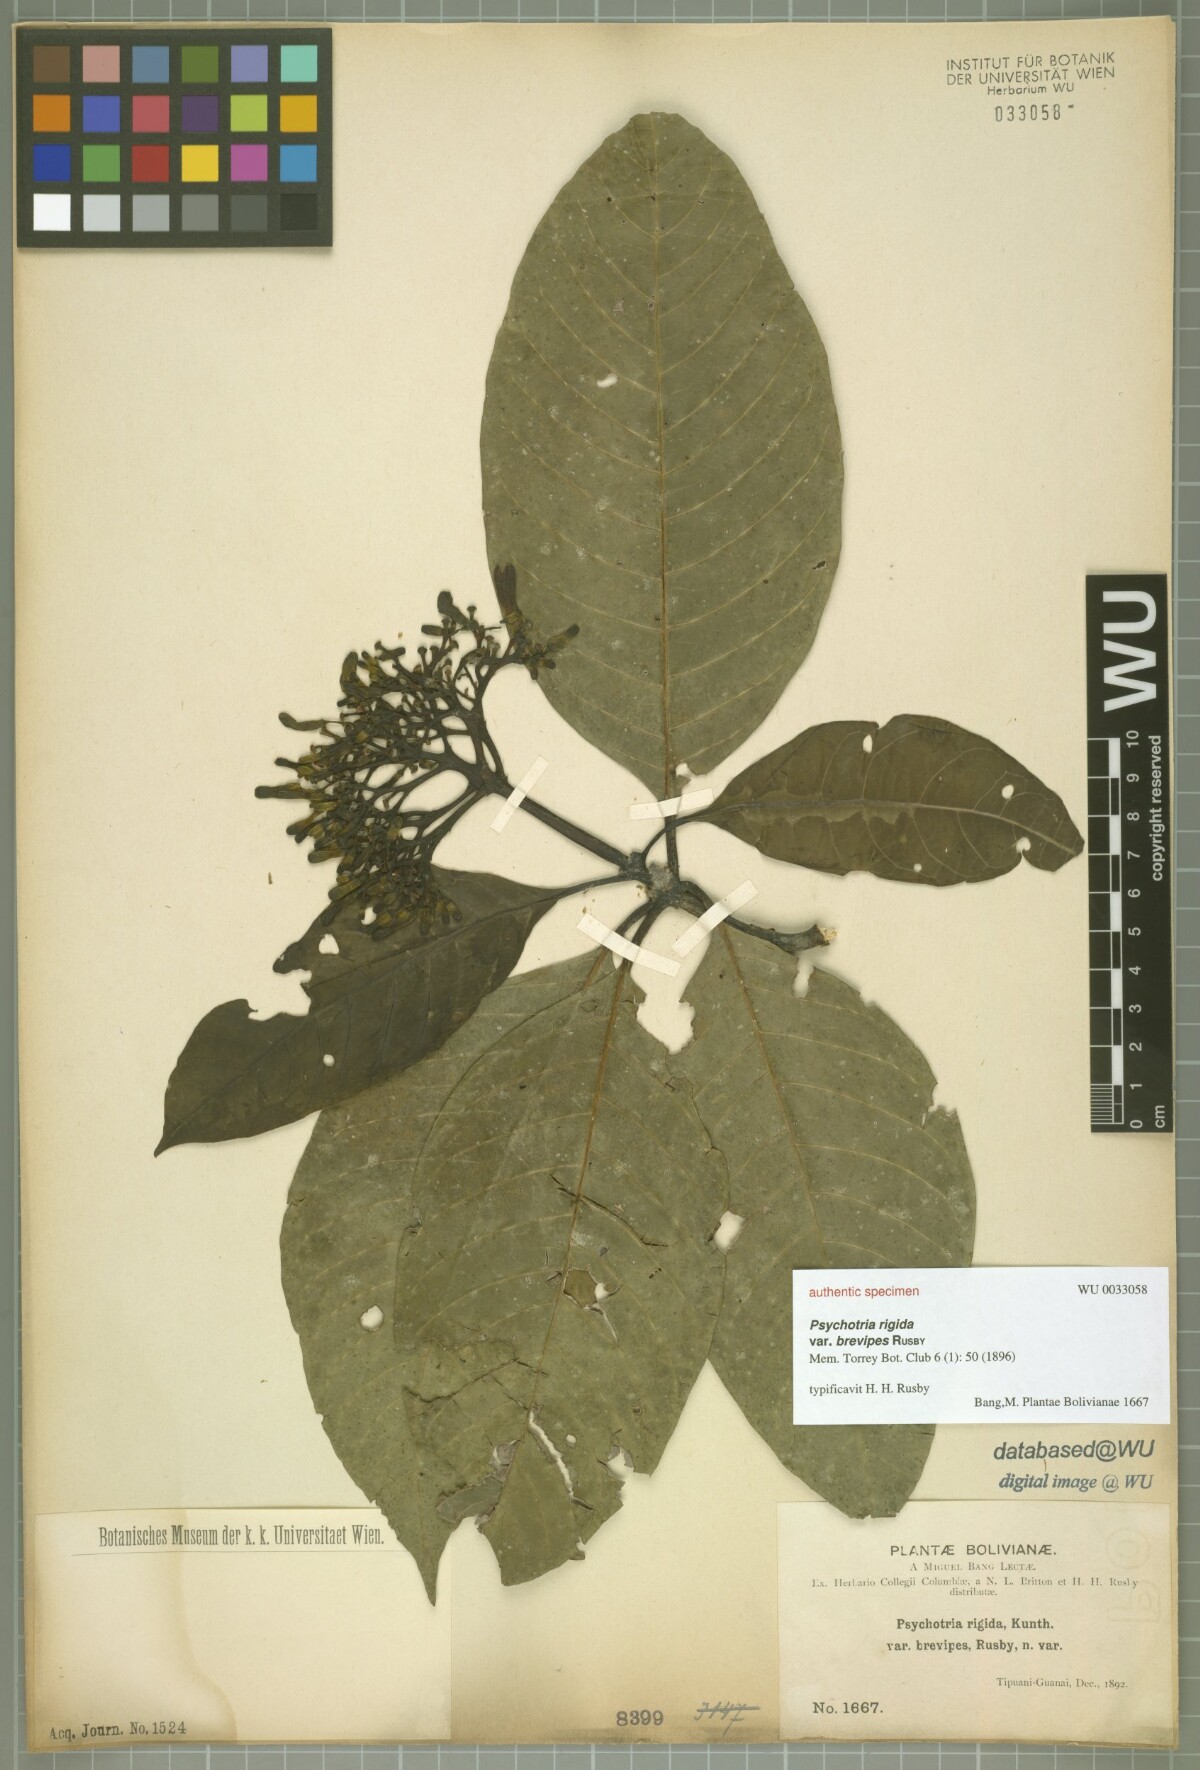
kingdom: Plantae
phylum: Tracheophyta
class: Magnoliopsida
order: Gentianales
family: Rubiaceae
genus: Palicourea
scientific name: Palicourea grandiflora
